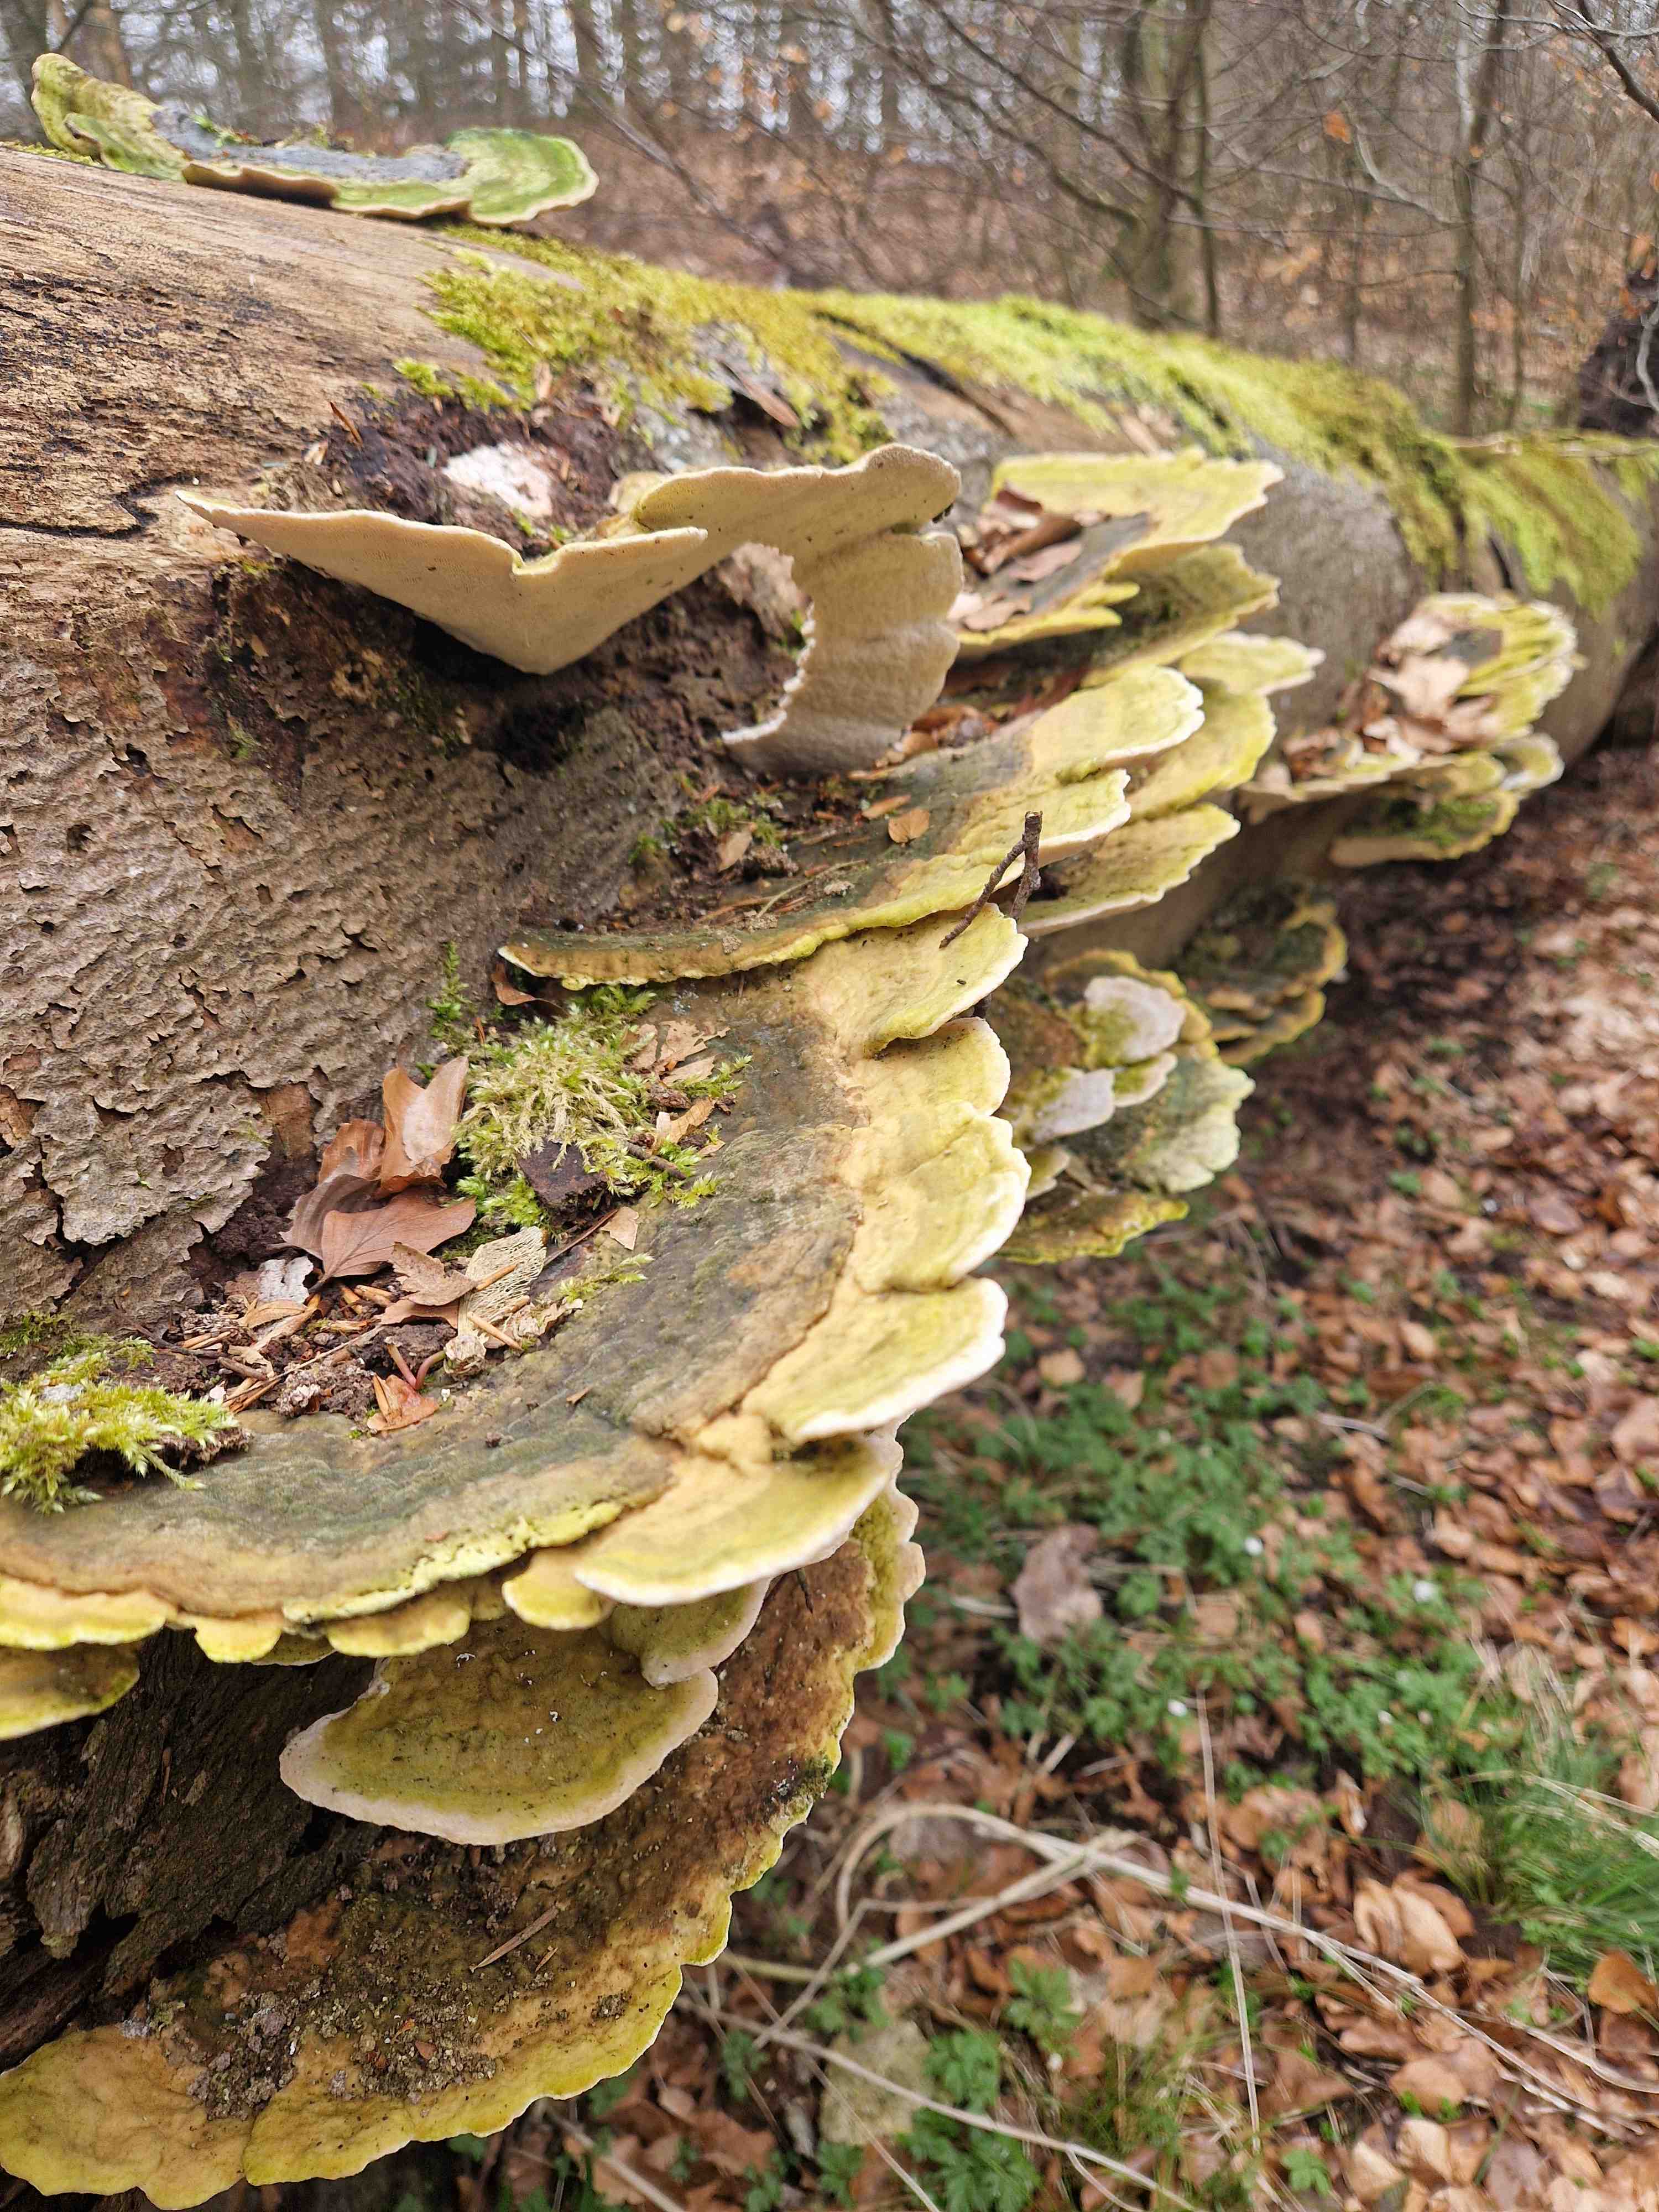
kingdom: Fungi
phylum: Basidiomycota
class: Agaricomycetes
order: Polyporales
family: Polyporaceae
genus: Trametes
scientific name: Trametes gibbosa
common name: puklet læderporesvamp
